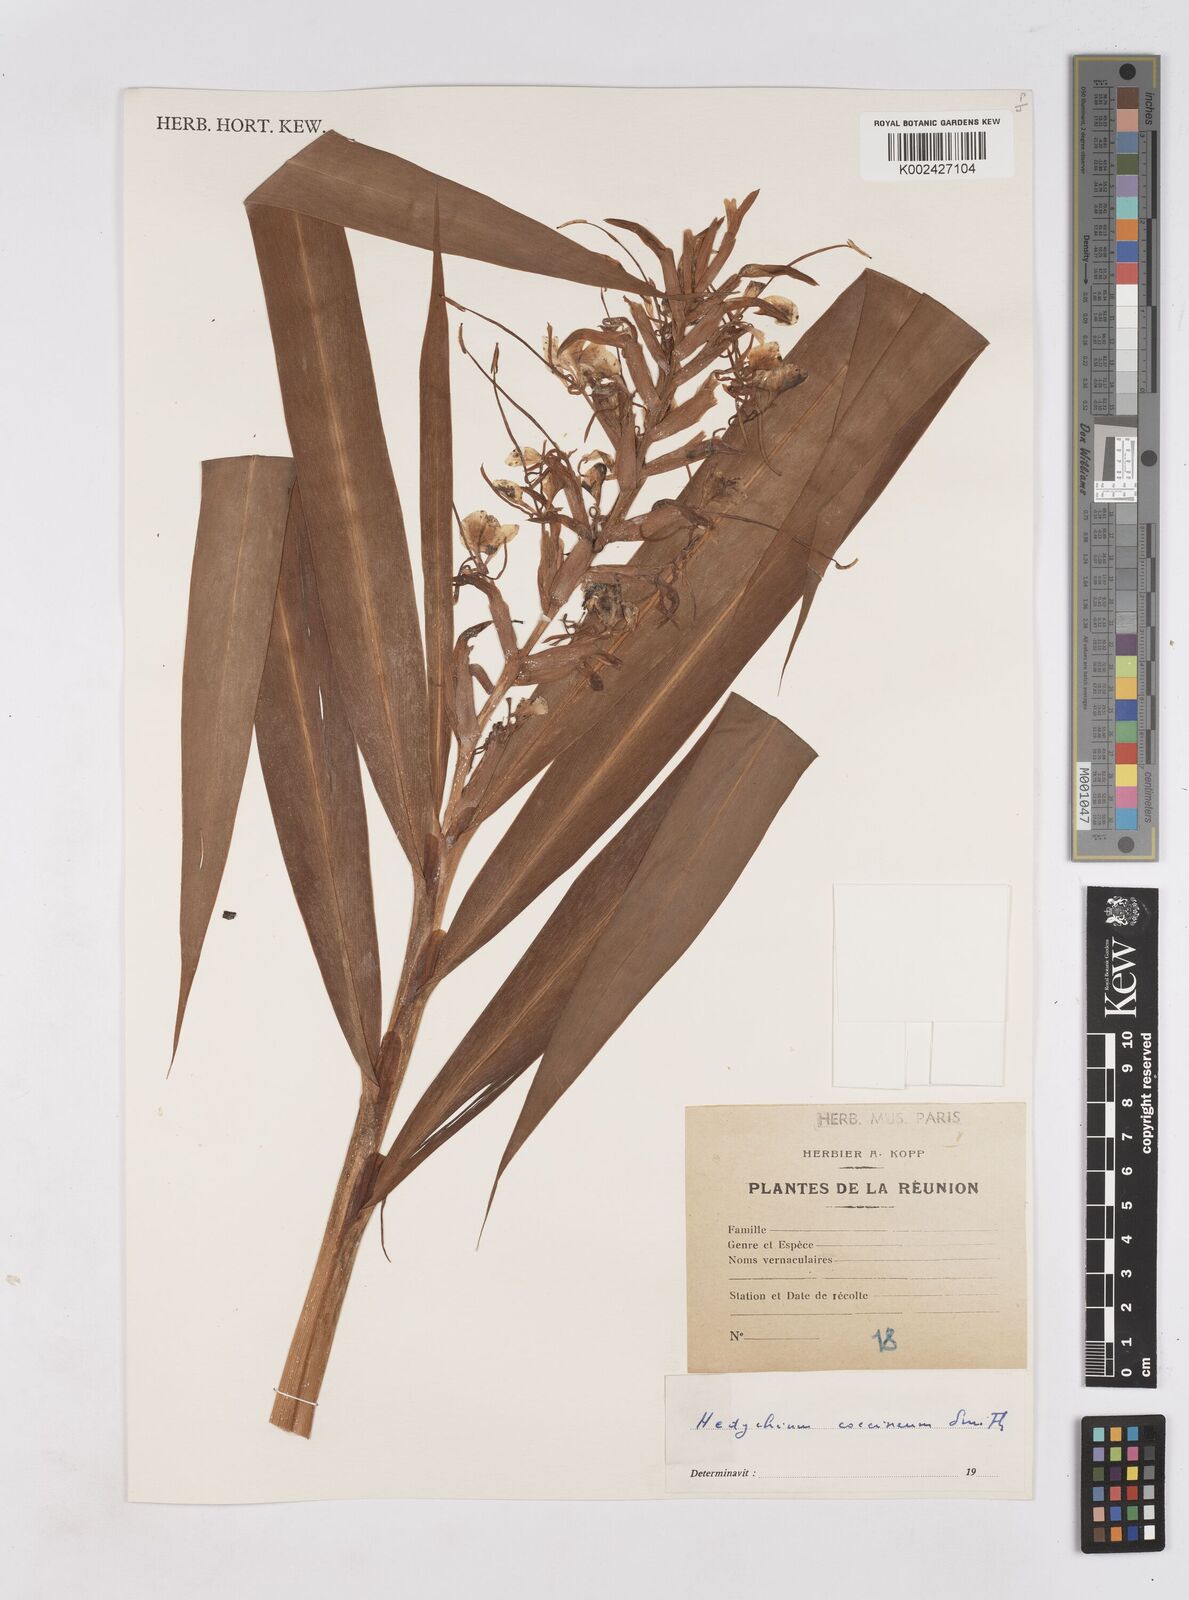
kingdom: Plantae
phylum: Tracheophyta
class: Liliopsida
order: Zingiberales
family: Zingiberaceae
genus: Hedychium
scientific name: Hedychium coccineum
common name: Red ginger-lily
